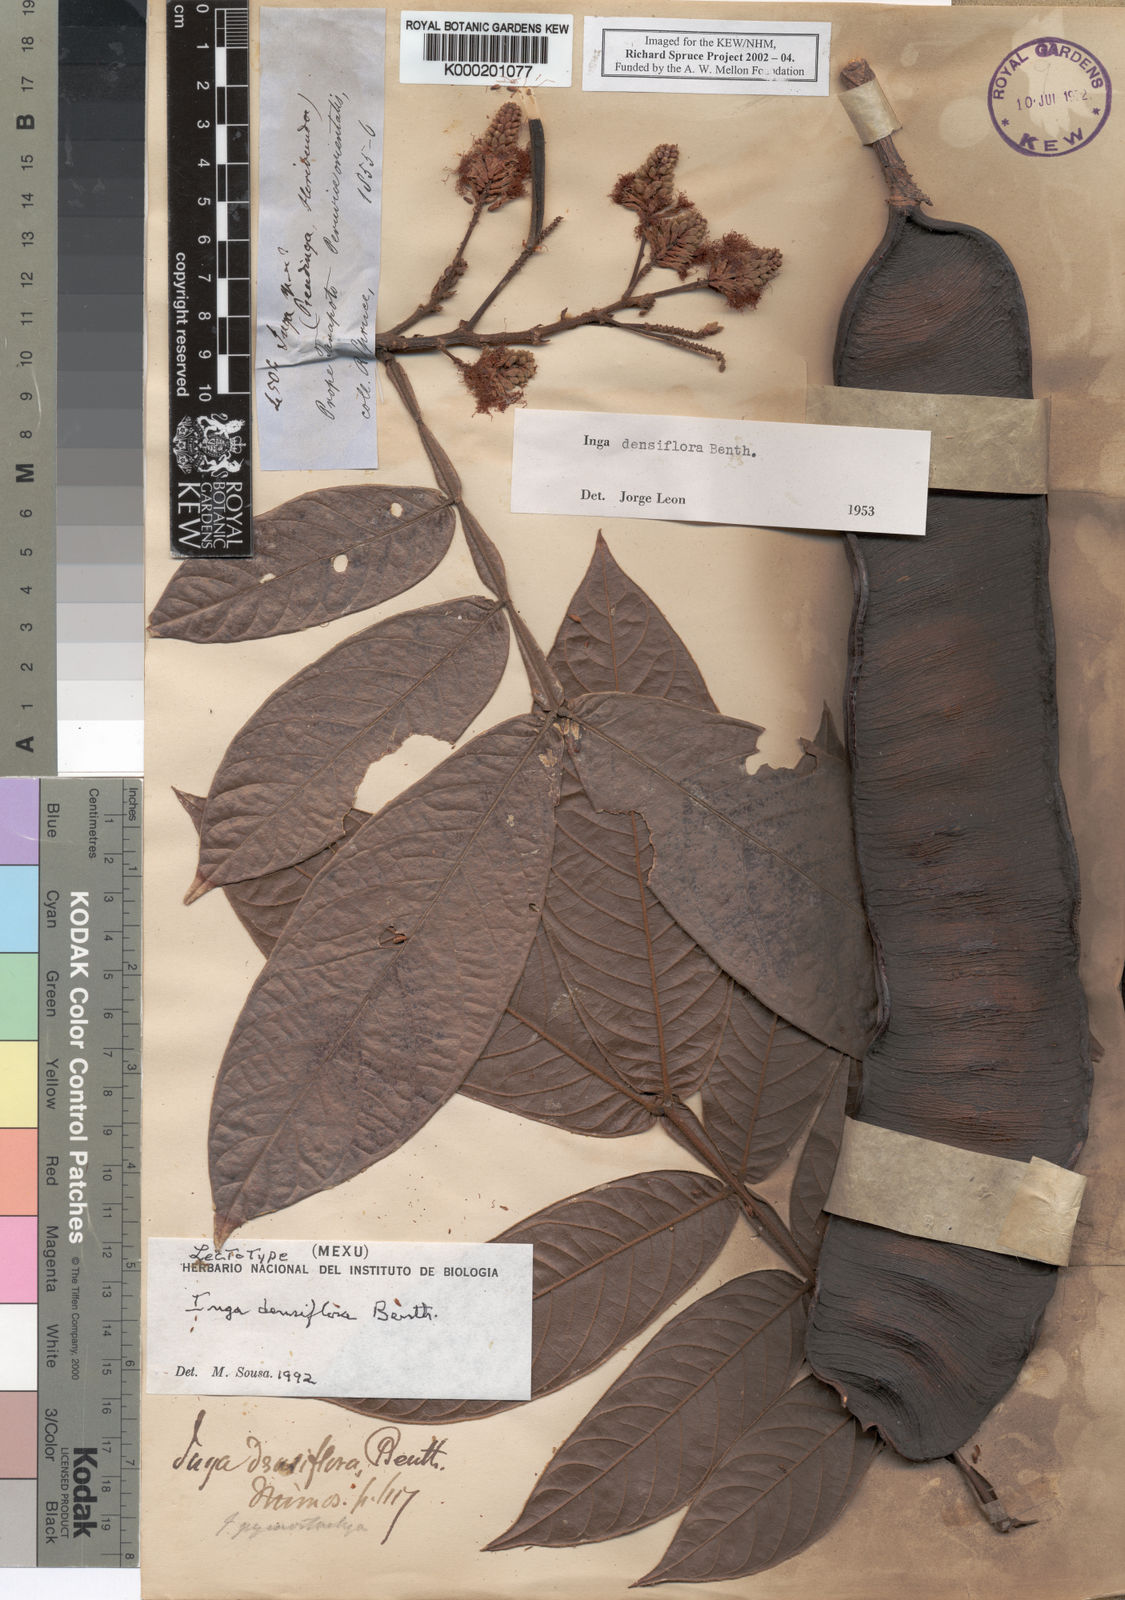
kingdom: Plantae
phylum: Tracheophyta
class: Magnoliopsida
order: Fabales
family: Fabaceae
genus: Inga
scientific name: Inga densiflora
